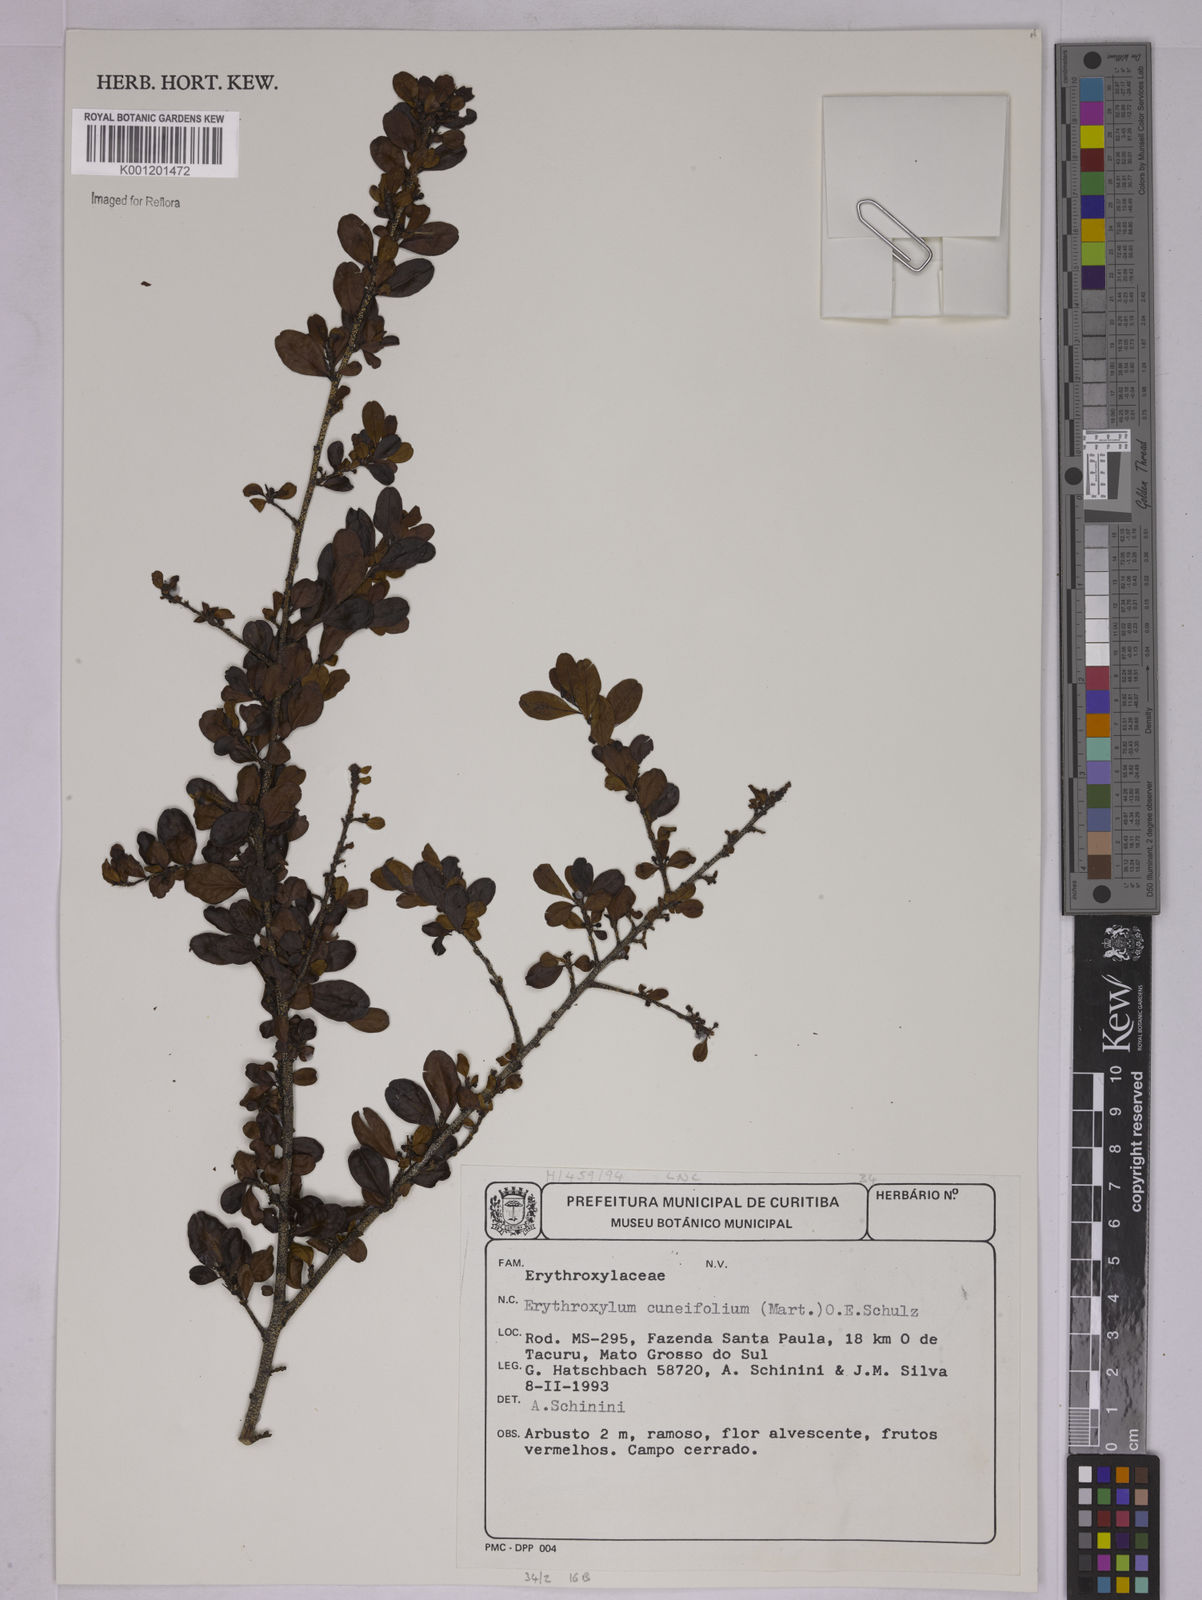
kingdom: Plantae
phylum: Tracheophyta
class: Magnoliopsida
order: Malpighiales
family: Erythroxylaceae
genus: Erythroxylum
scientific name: Erythroxylum cuneifolium
